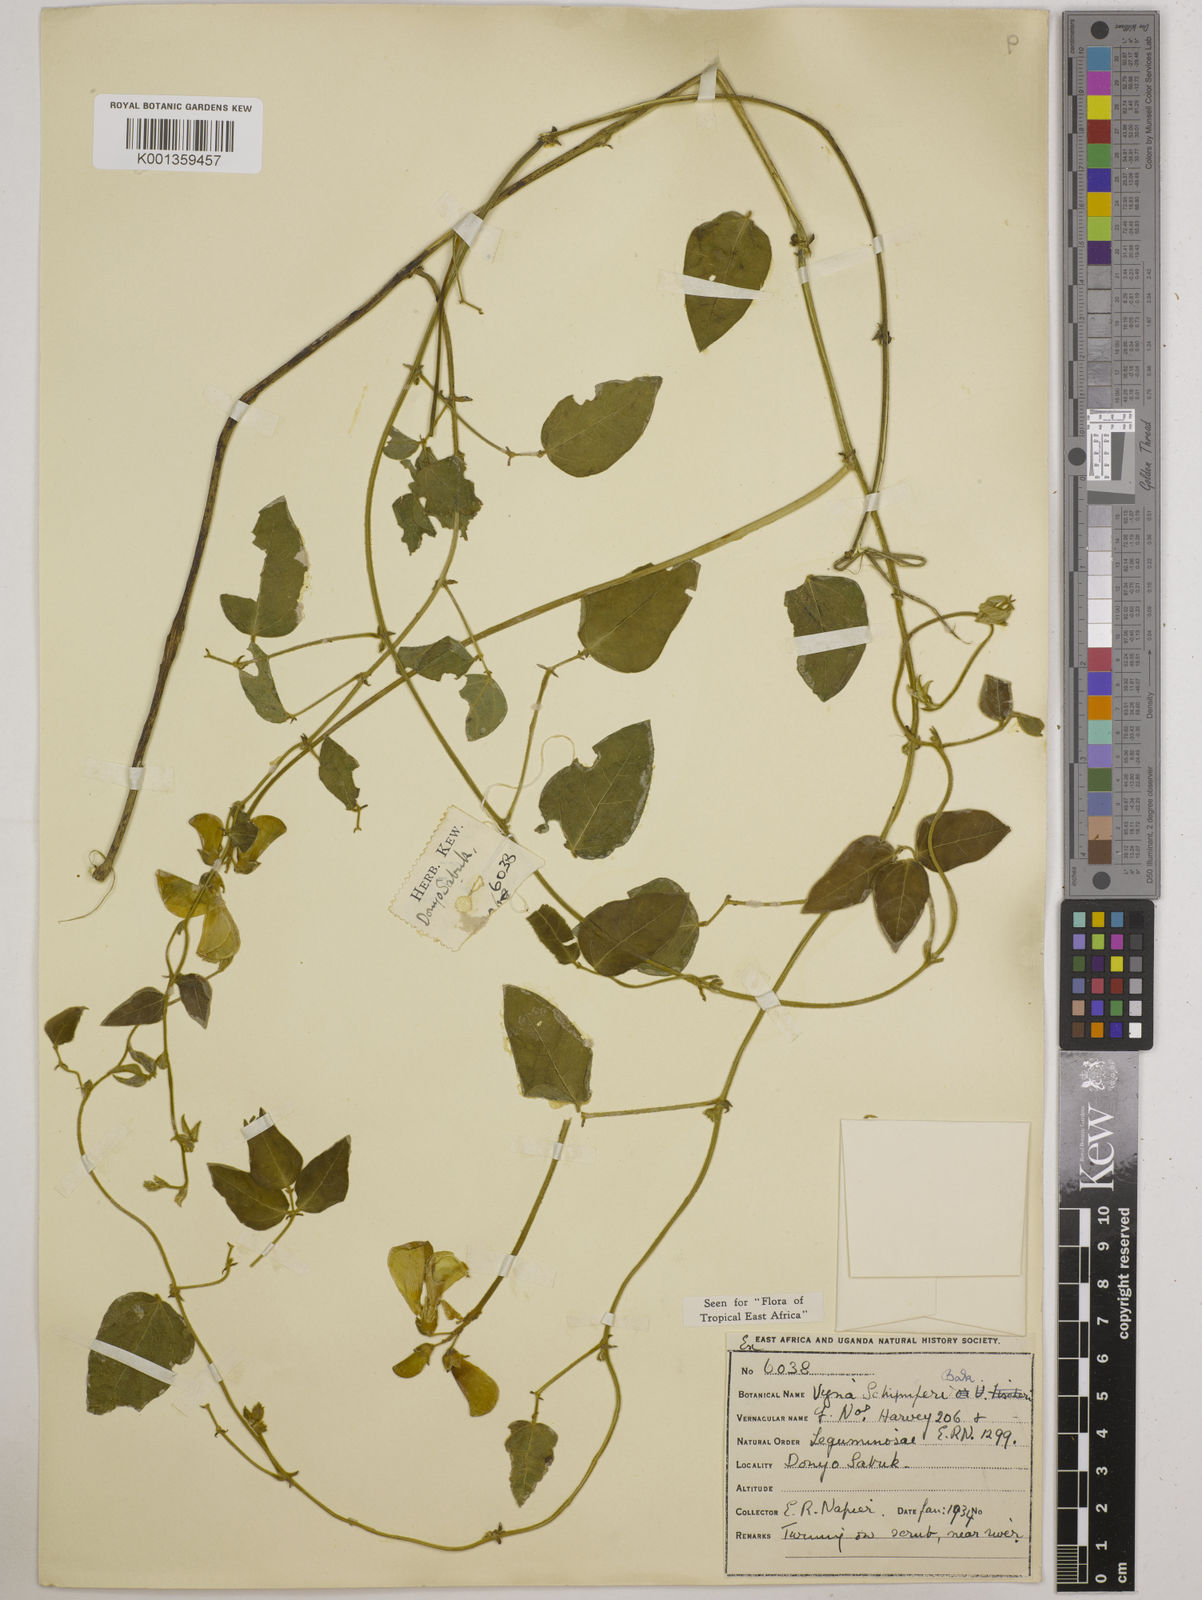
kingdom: Plantae
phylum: Tracheophyta
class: Magnoliopsida
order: Fabales
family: Fabaceae
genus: Vigna
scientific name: Vigna schimperi
